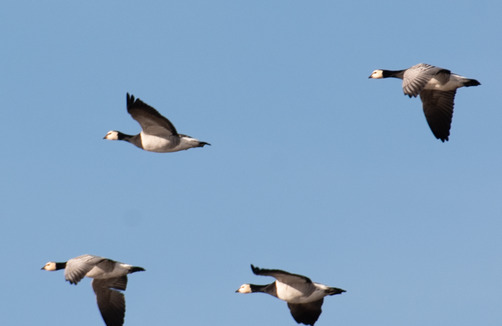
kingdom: Animalia
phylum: Chordata
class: Aves
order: Anseriformes
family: Anatidae
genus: Branta
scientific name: Branta leucopsis
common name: Bramgås
